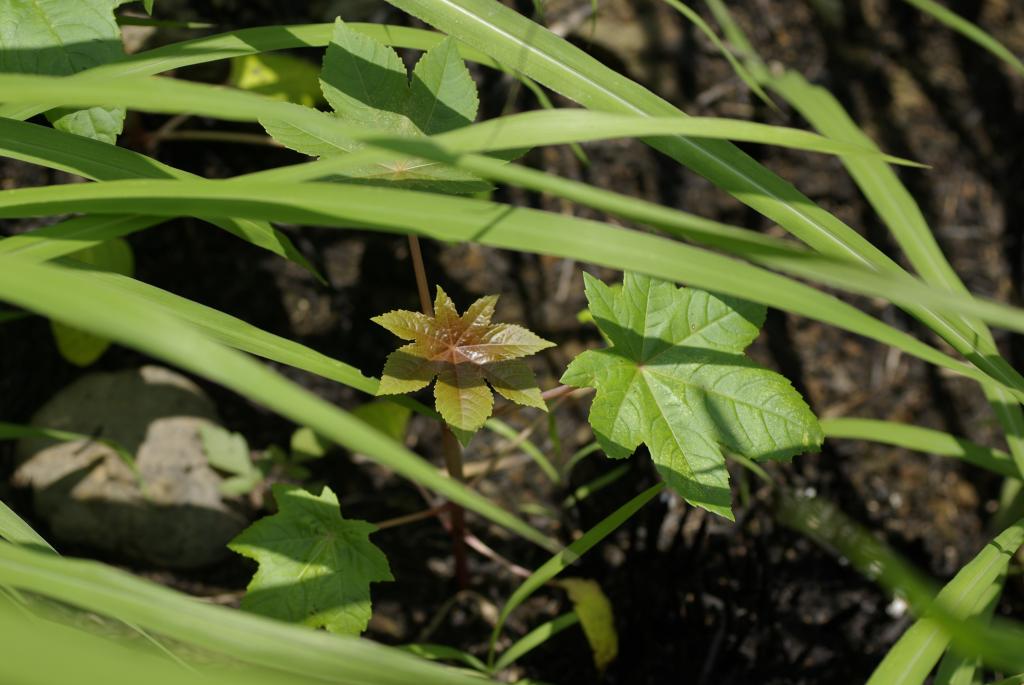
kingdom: Plantae
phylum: Tracheophyta
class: Magnoliopsida
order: Malpighiales
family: Euphorbiaceae
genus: Ricinus
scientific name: Ricinus communis
